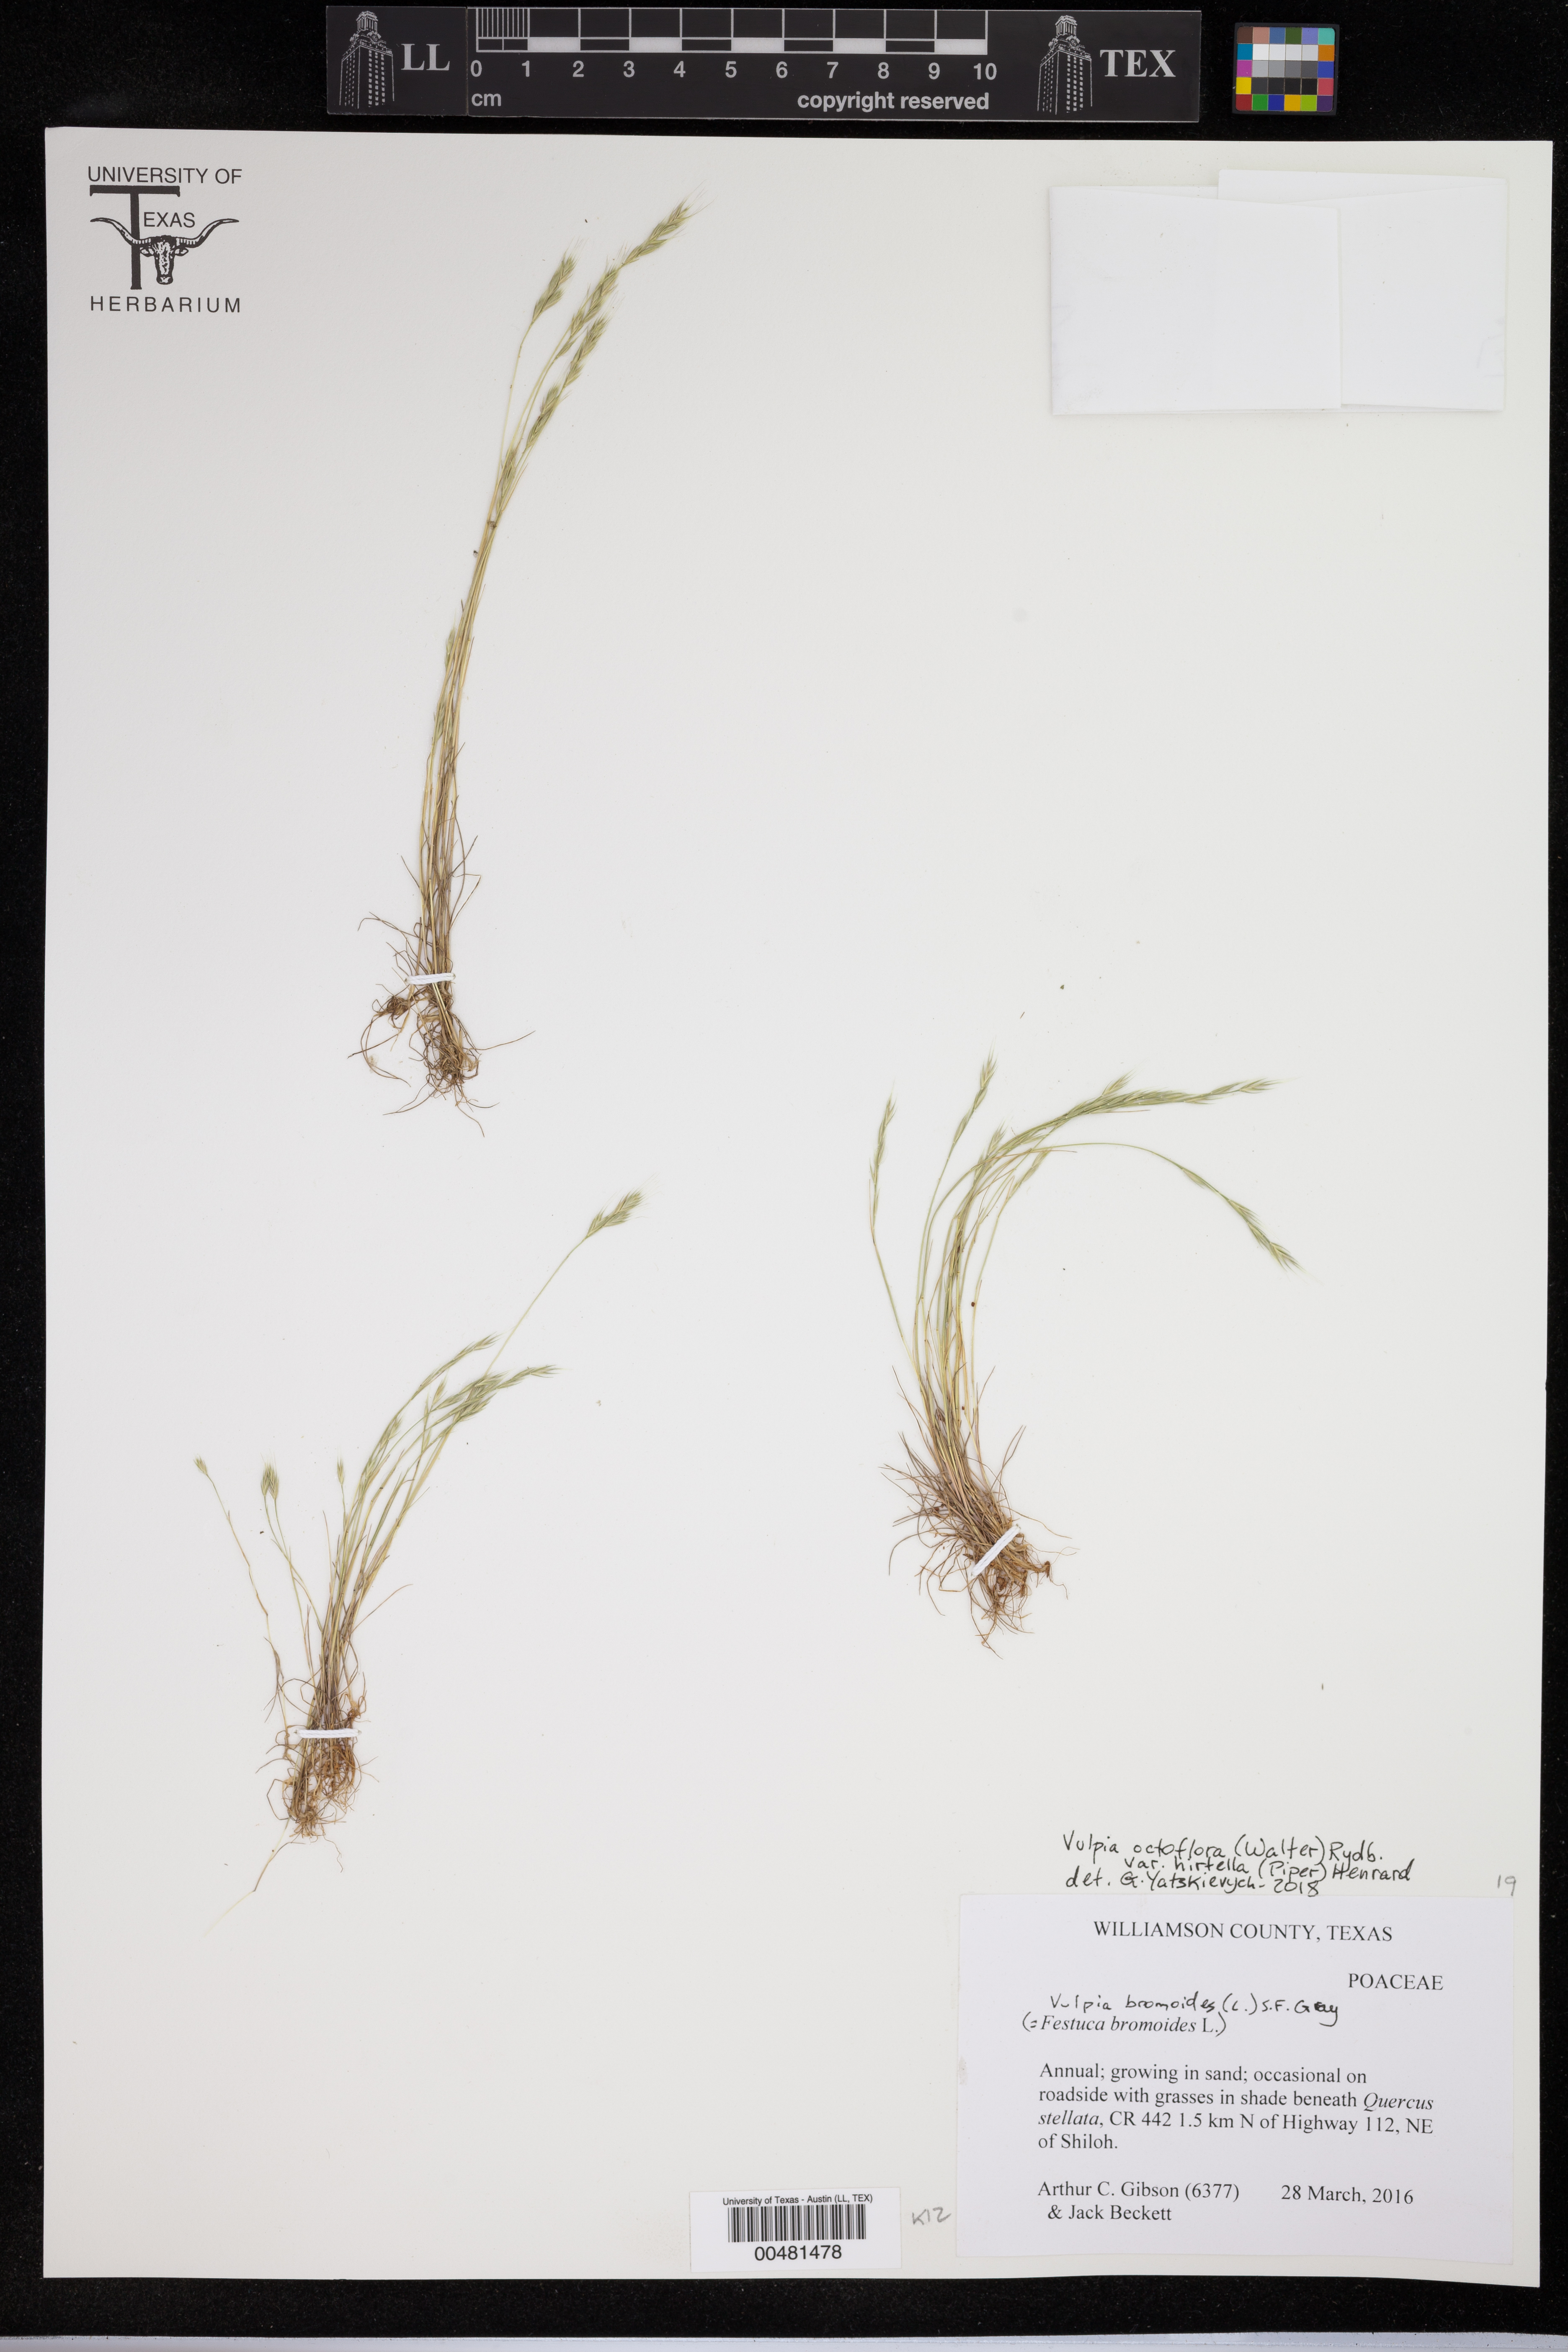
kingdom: Plantae
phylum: Tracheophyta
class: Liliopsida
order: Poales
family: Poaceae
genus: Festuca
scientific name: Festuca bromoides
